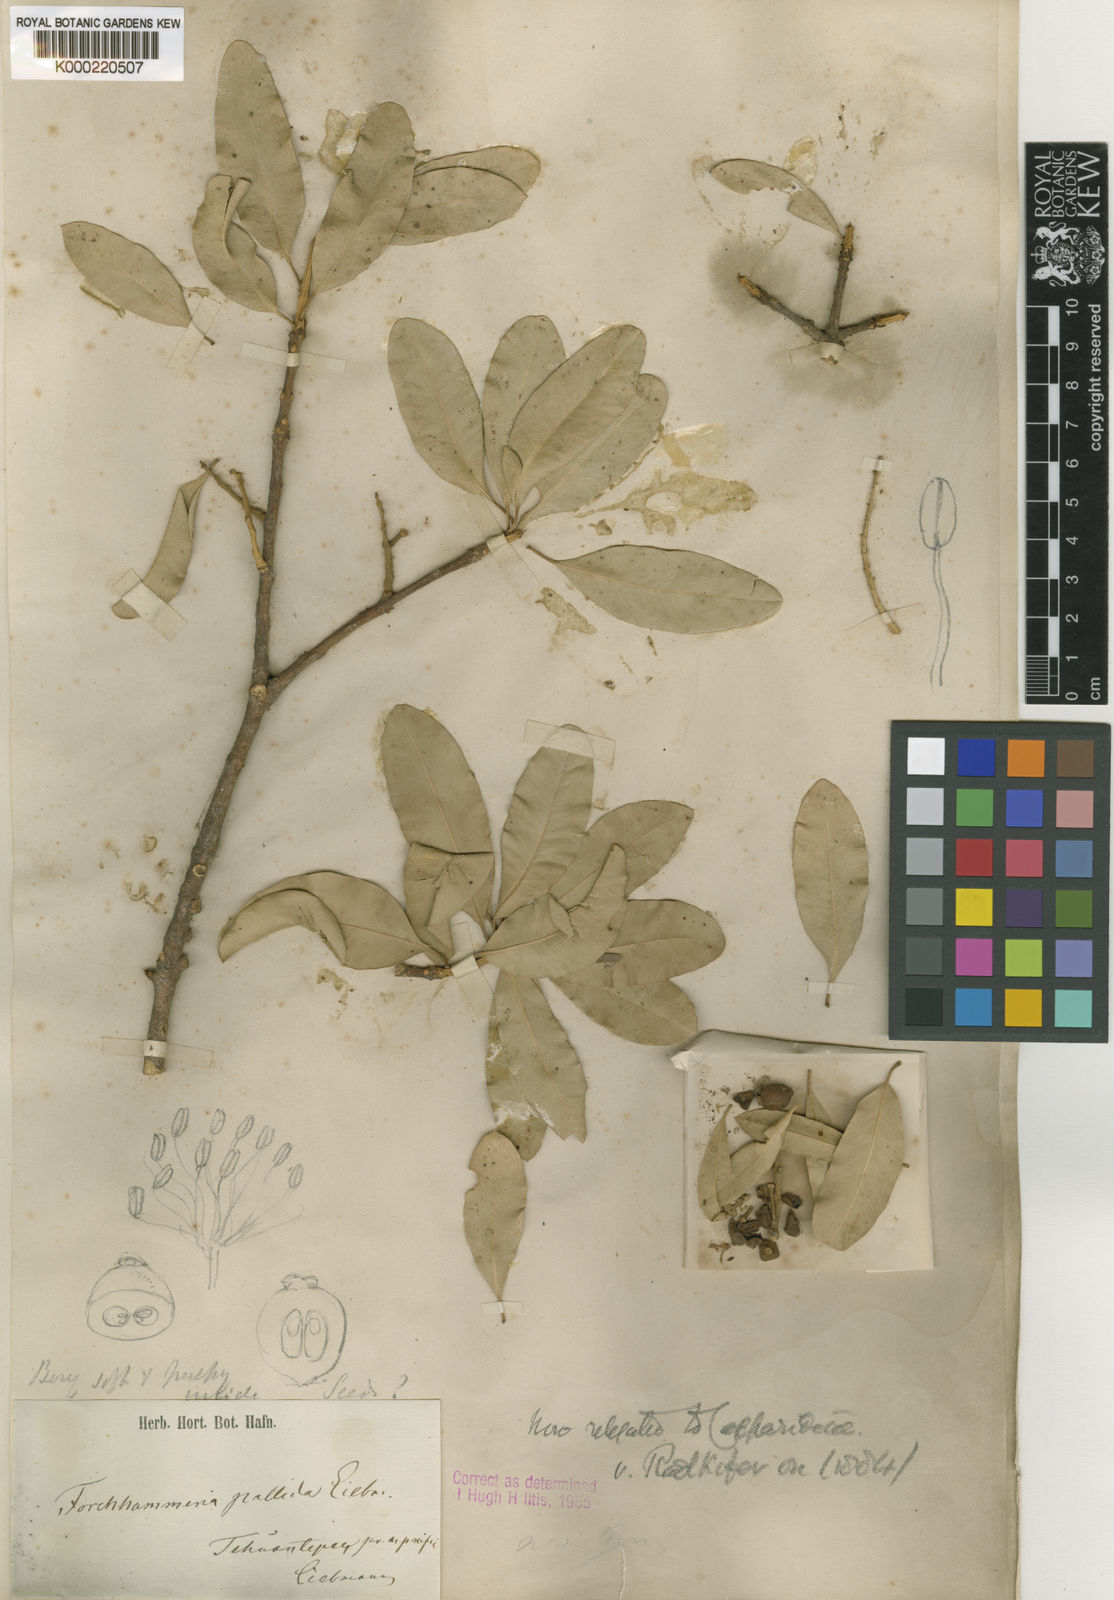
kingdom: Plantae
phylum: Tracheophyta
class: Magnoliopsida
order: Brassicales
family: Stixaceae
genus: Forchhammeria
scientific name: Forchhammeria pallida
